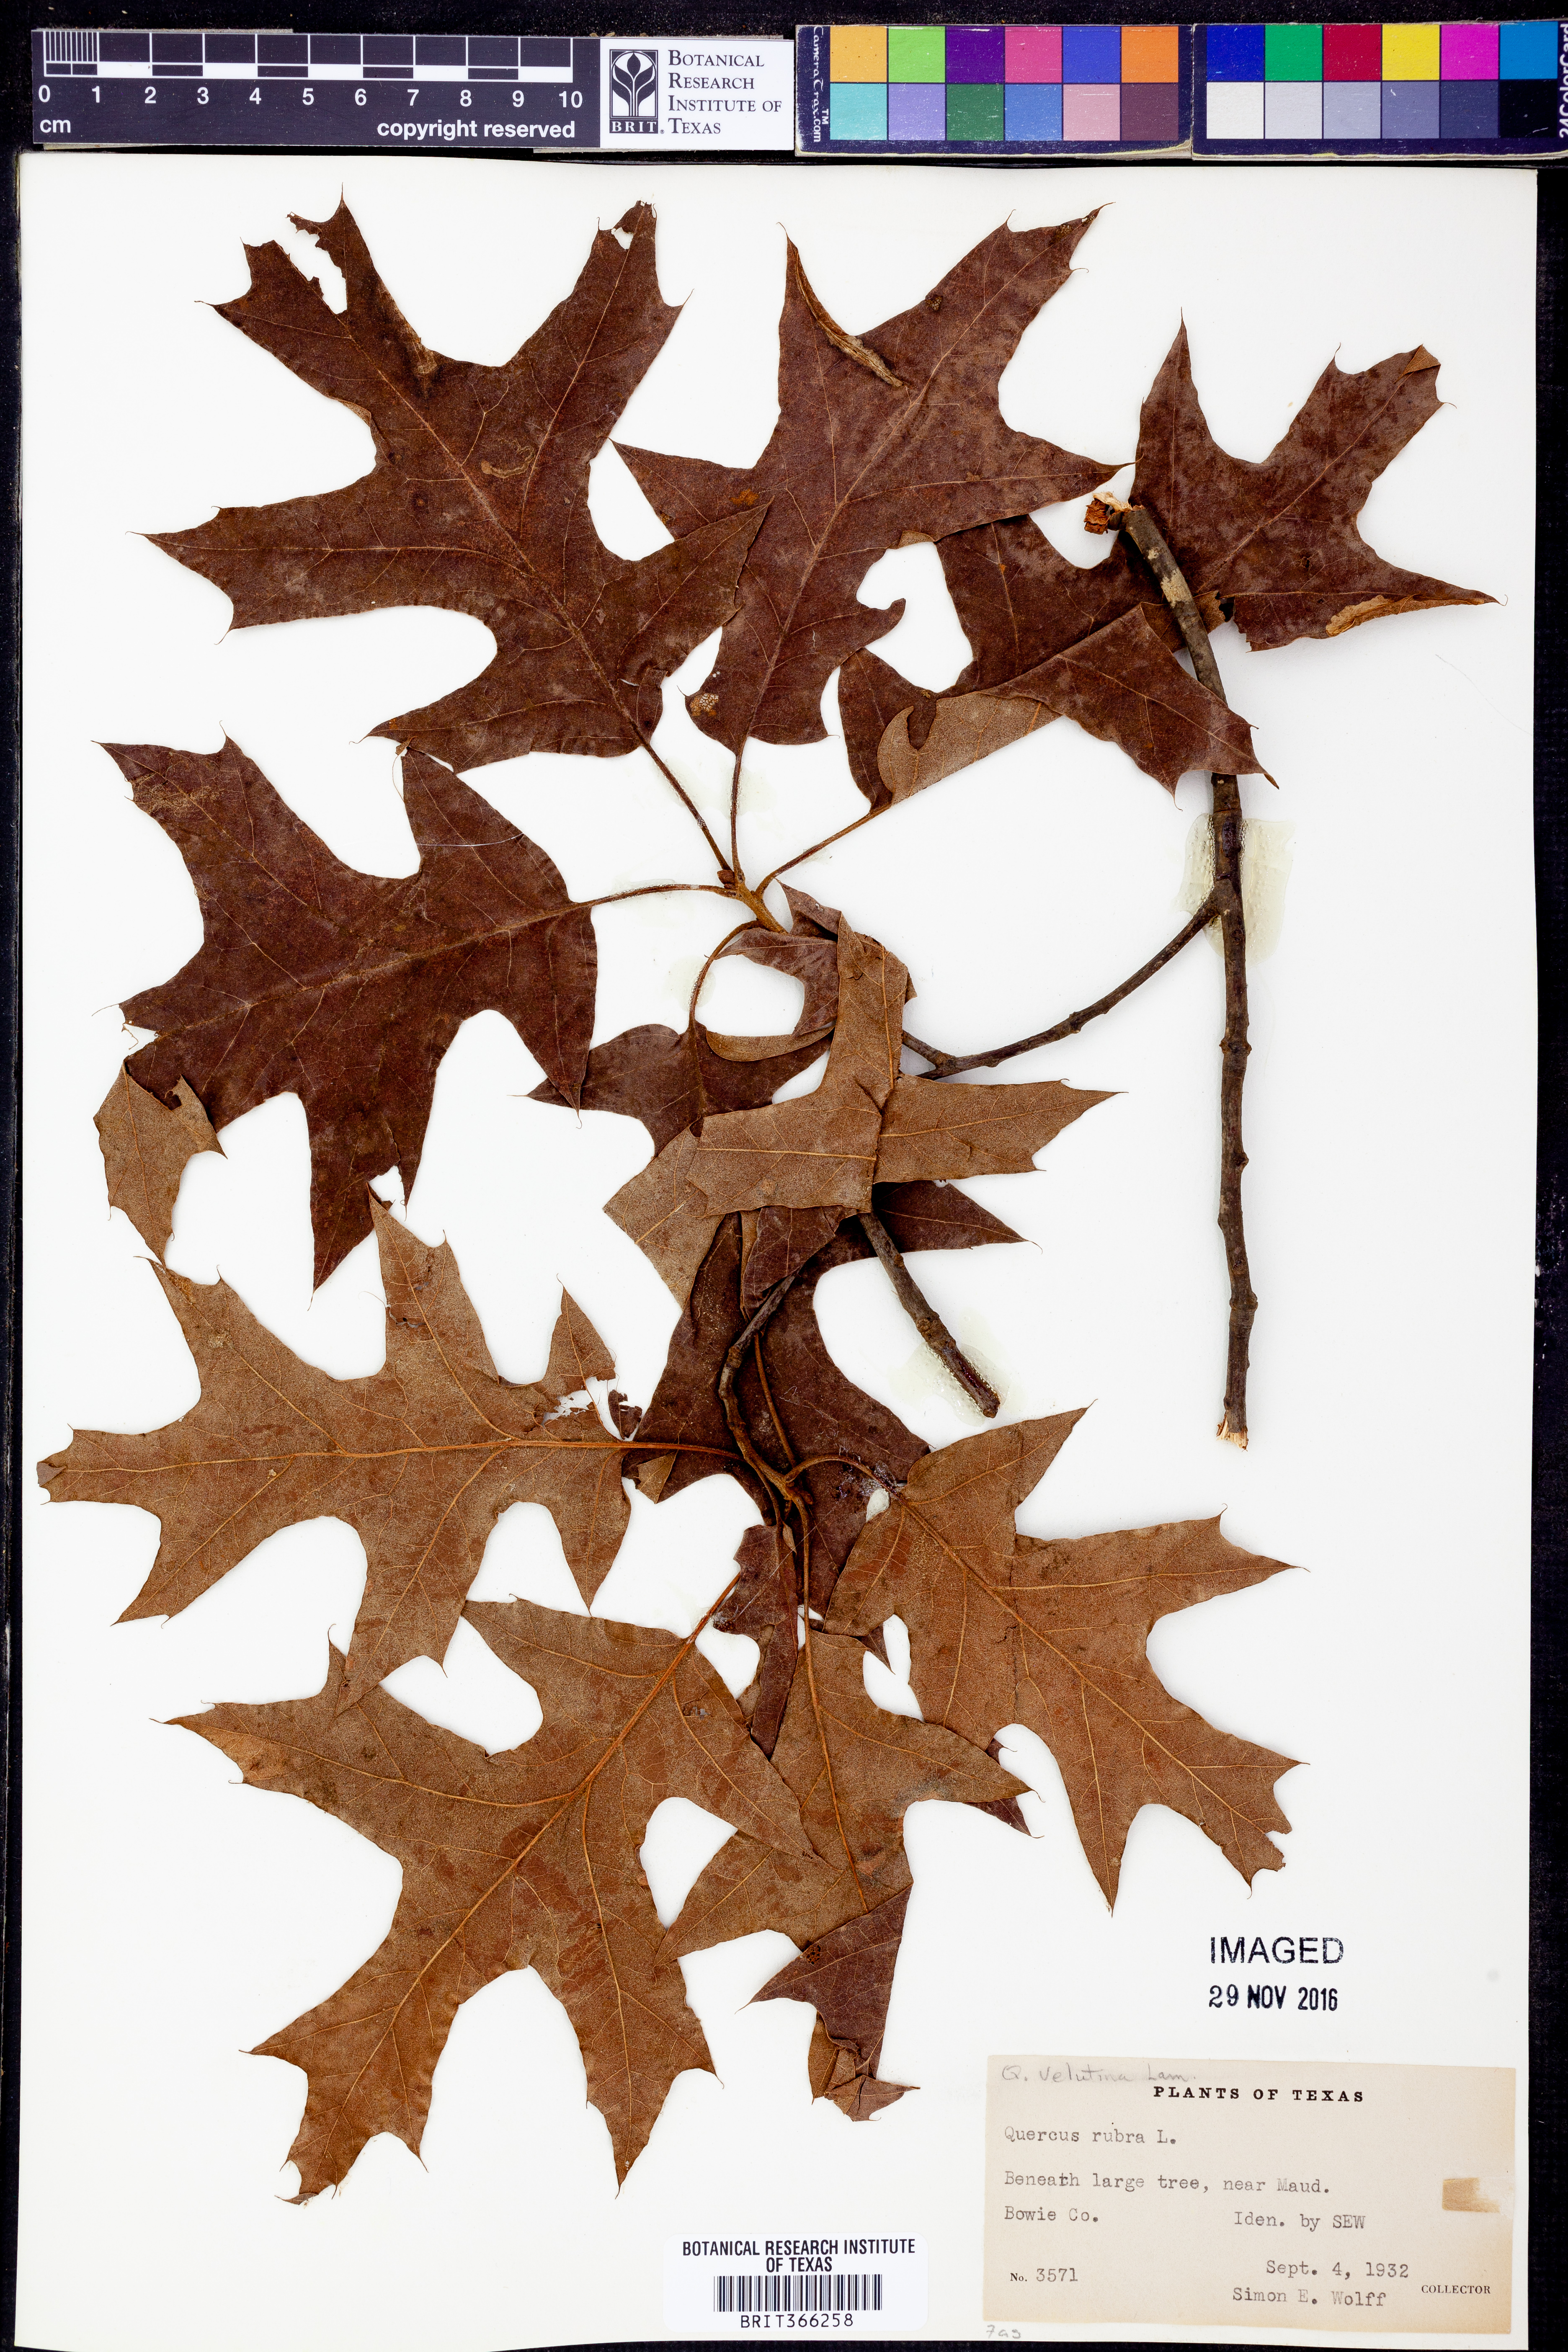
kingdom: Plantae
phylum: Tracheophyta
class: Magnoliopsida
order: Fagales
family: Fagaceae
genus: Quercus
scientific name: Quercus velutina
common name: Black oak
